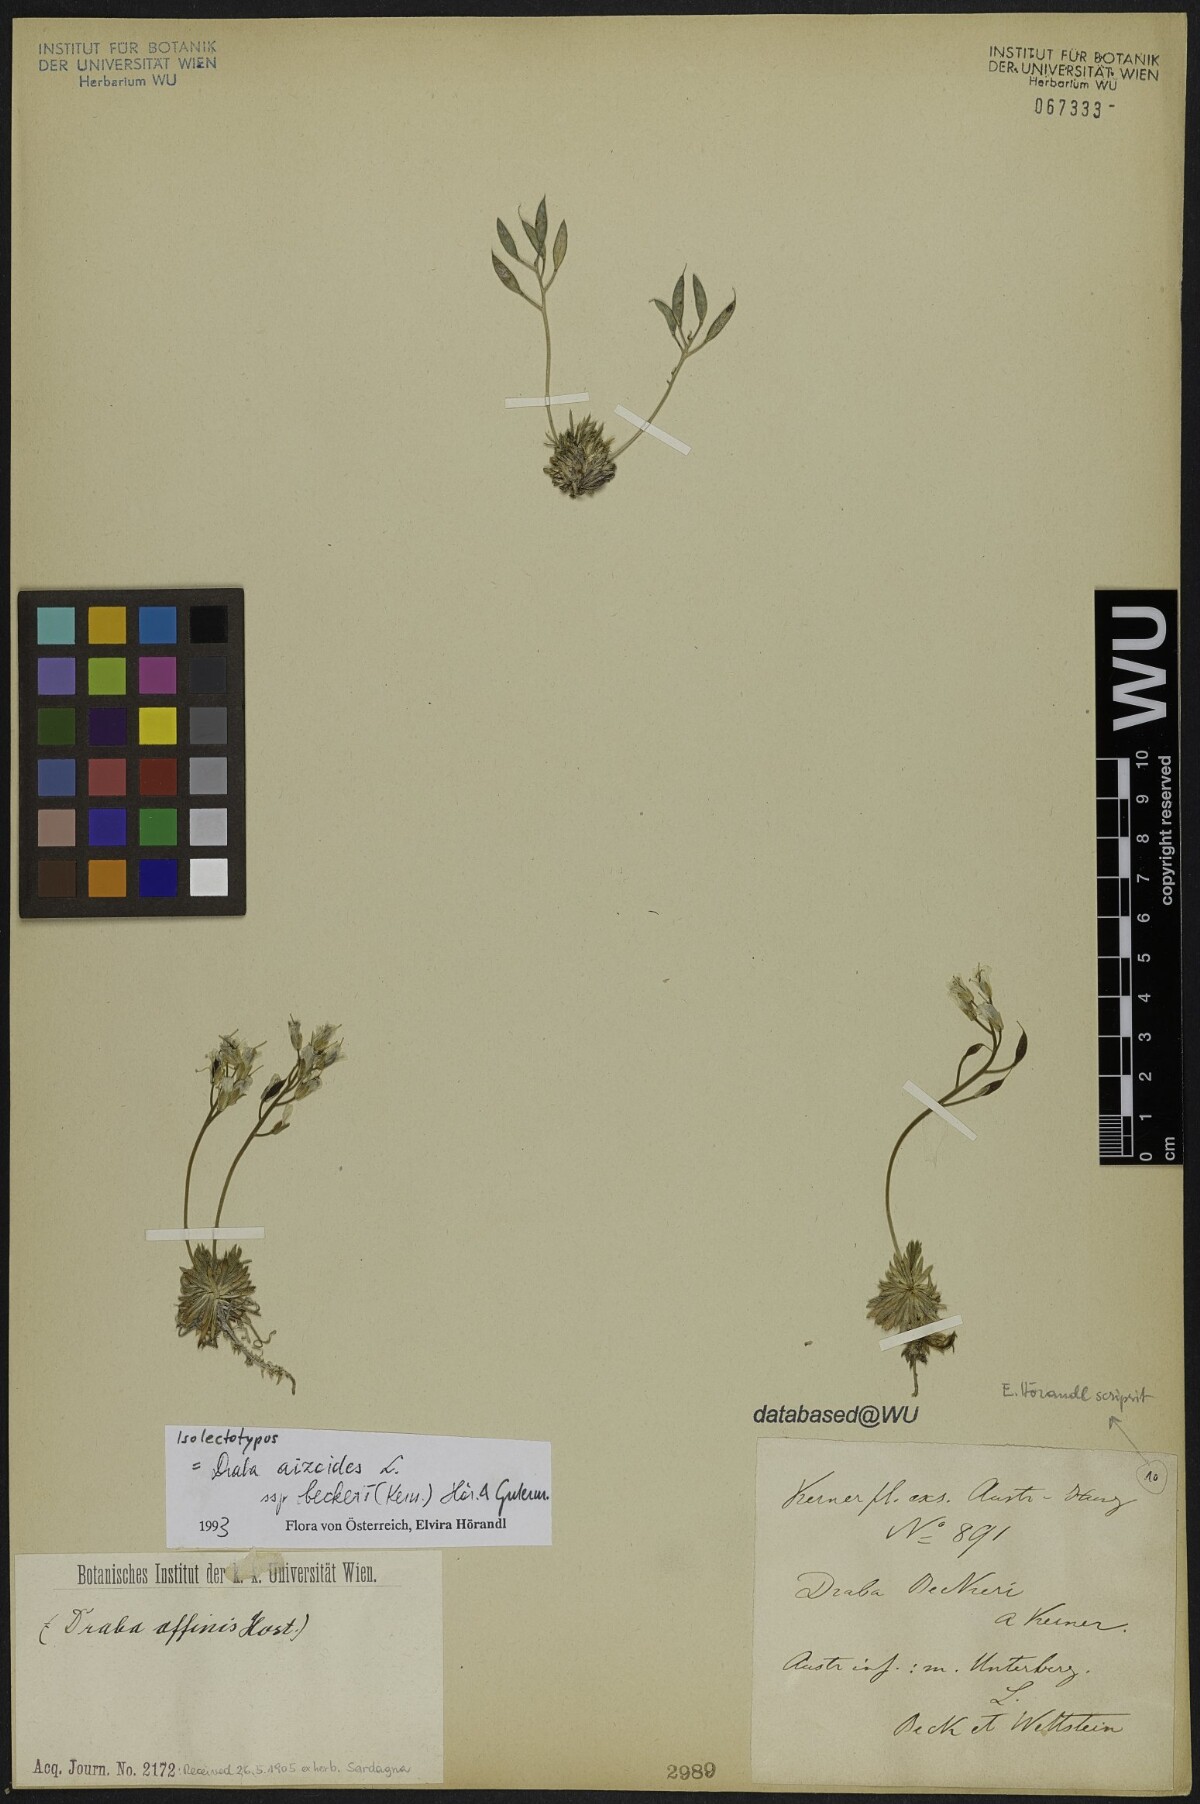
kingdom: Plantae
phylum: Tracheophyta
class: Magnoliopsida
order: Brassicales
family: Brassicaceae
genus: Draba
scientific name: Draba aizoides
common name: Yellow whitlowgrass
